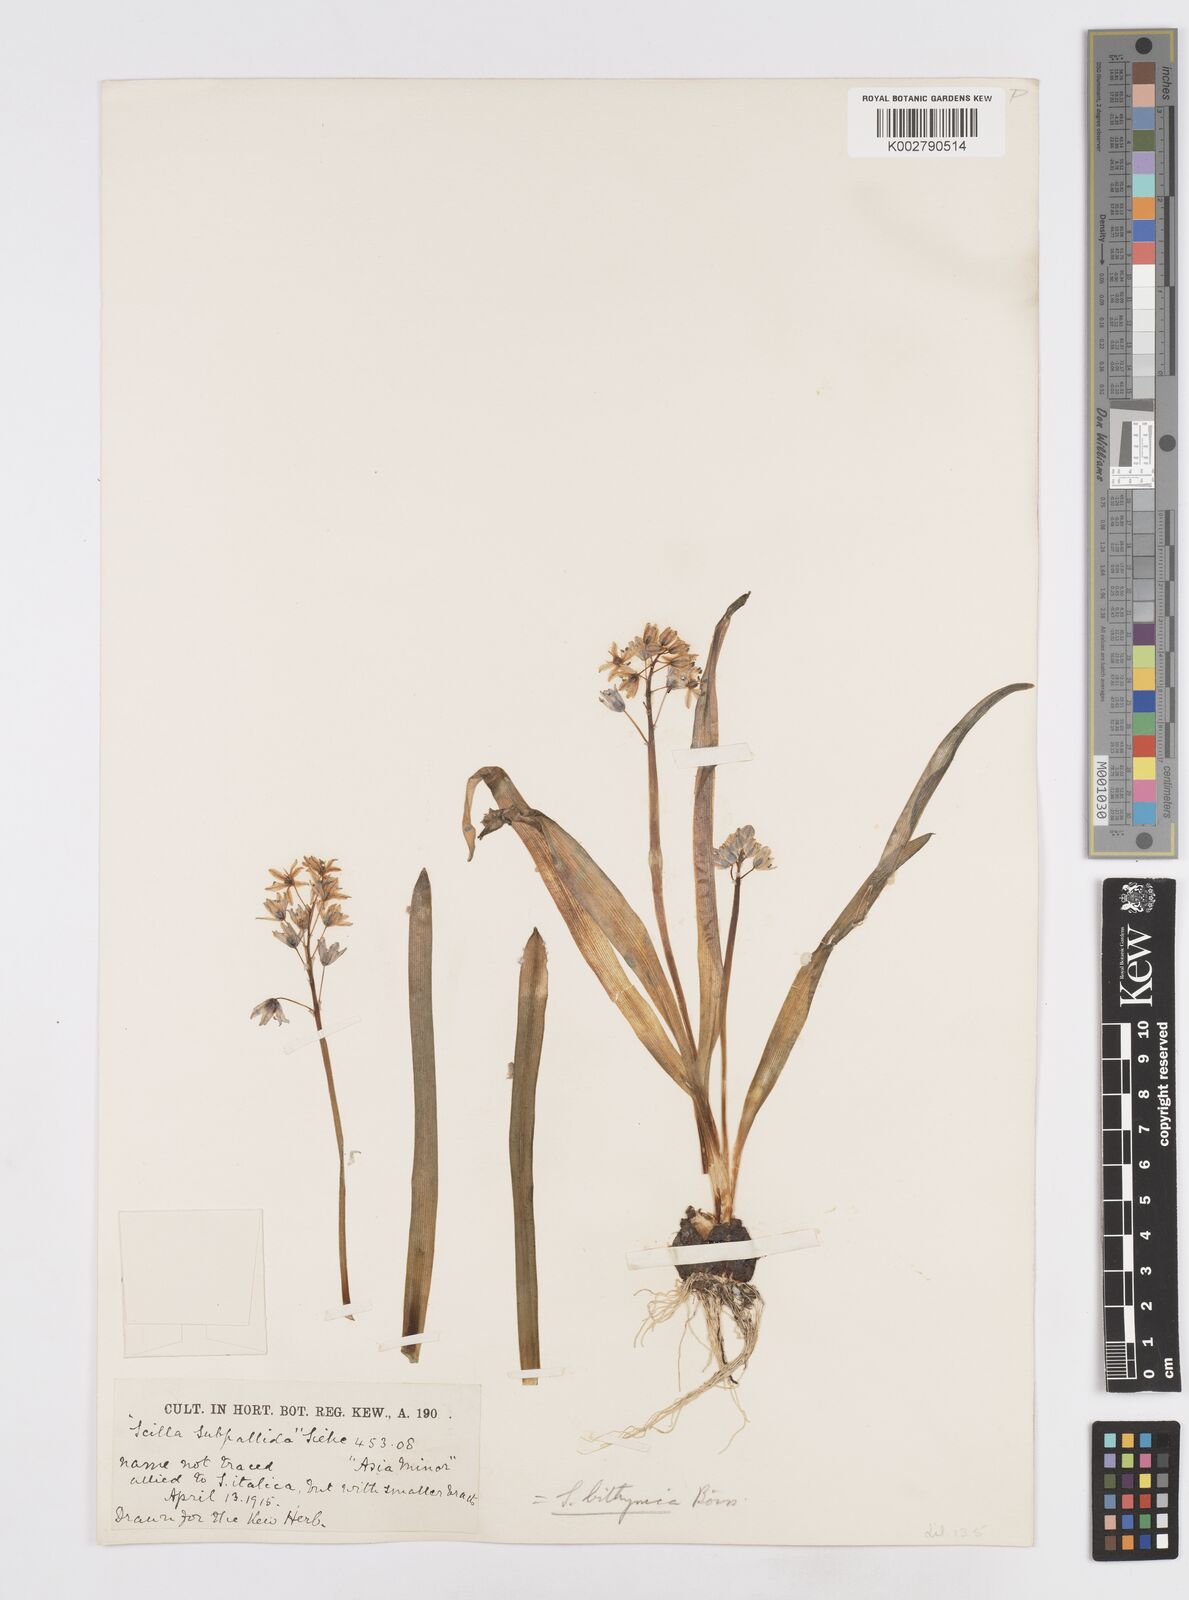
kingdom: Plantae
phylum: Tracheophyta
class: Liliopsida
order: Asparagales
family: Asparagaceae
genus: Scilla
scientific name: Scilla bithynica
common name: Turkish squill
